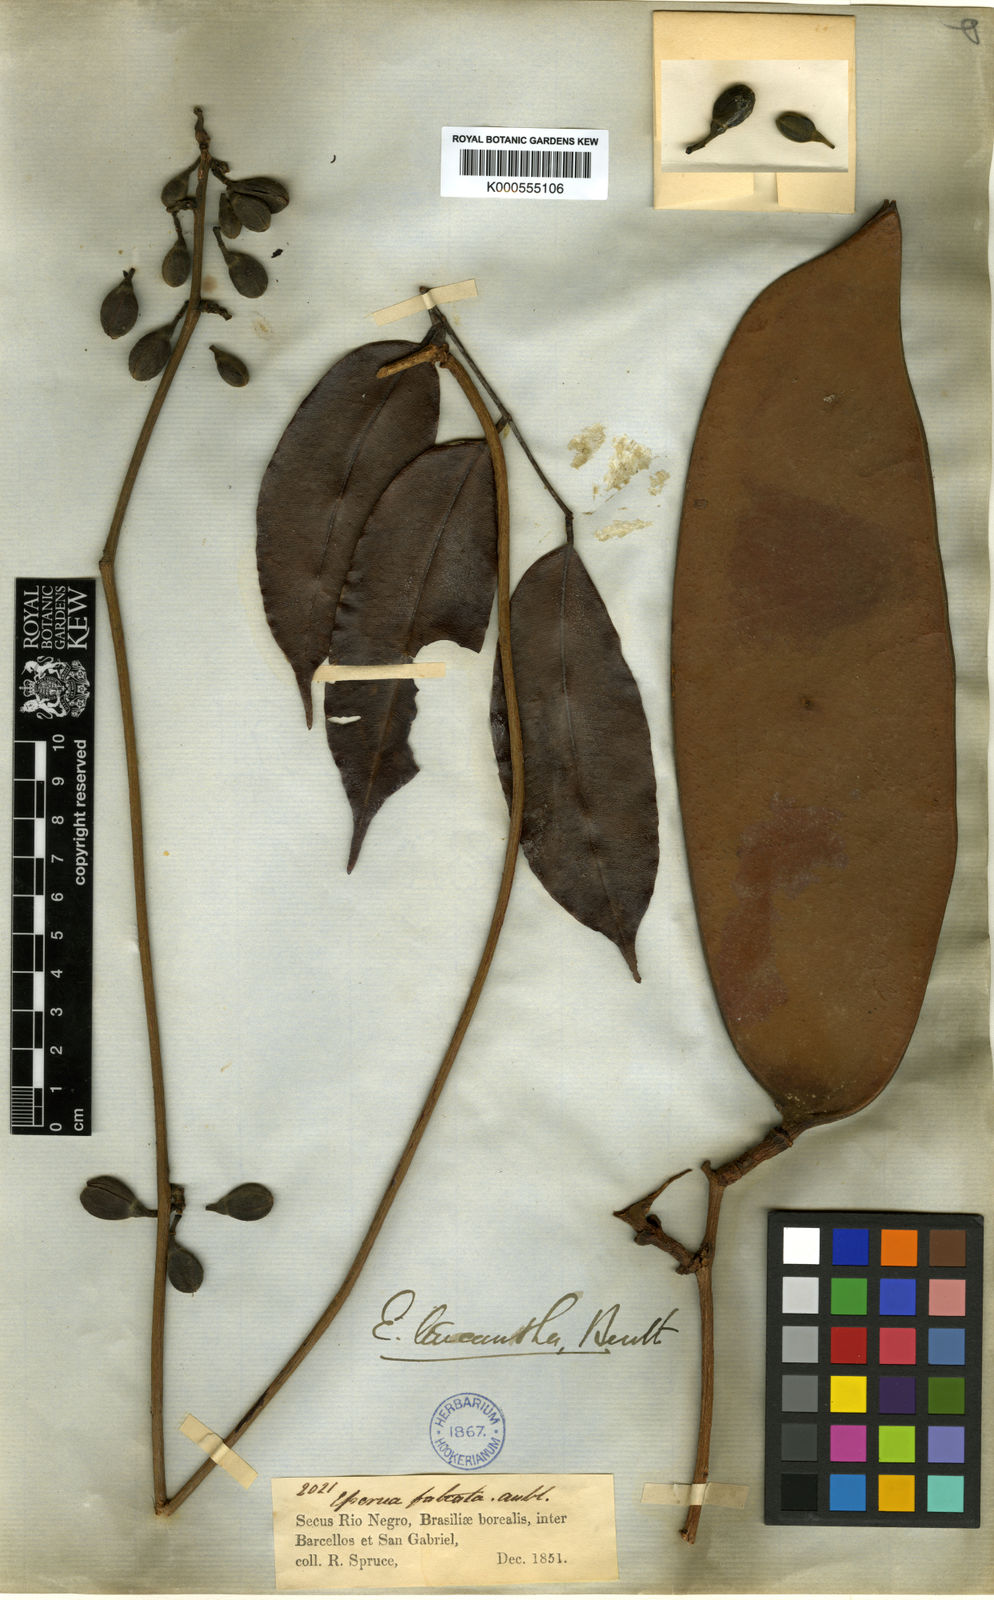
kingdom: Plantae
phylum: Tracheophyta
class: Magnoliopsida
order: Fabales
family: Fabaceae
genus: Eperua
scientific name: Eperua falcata
